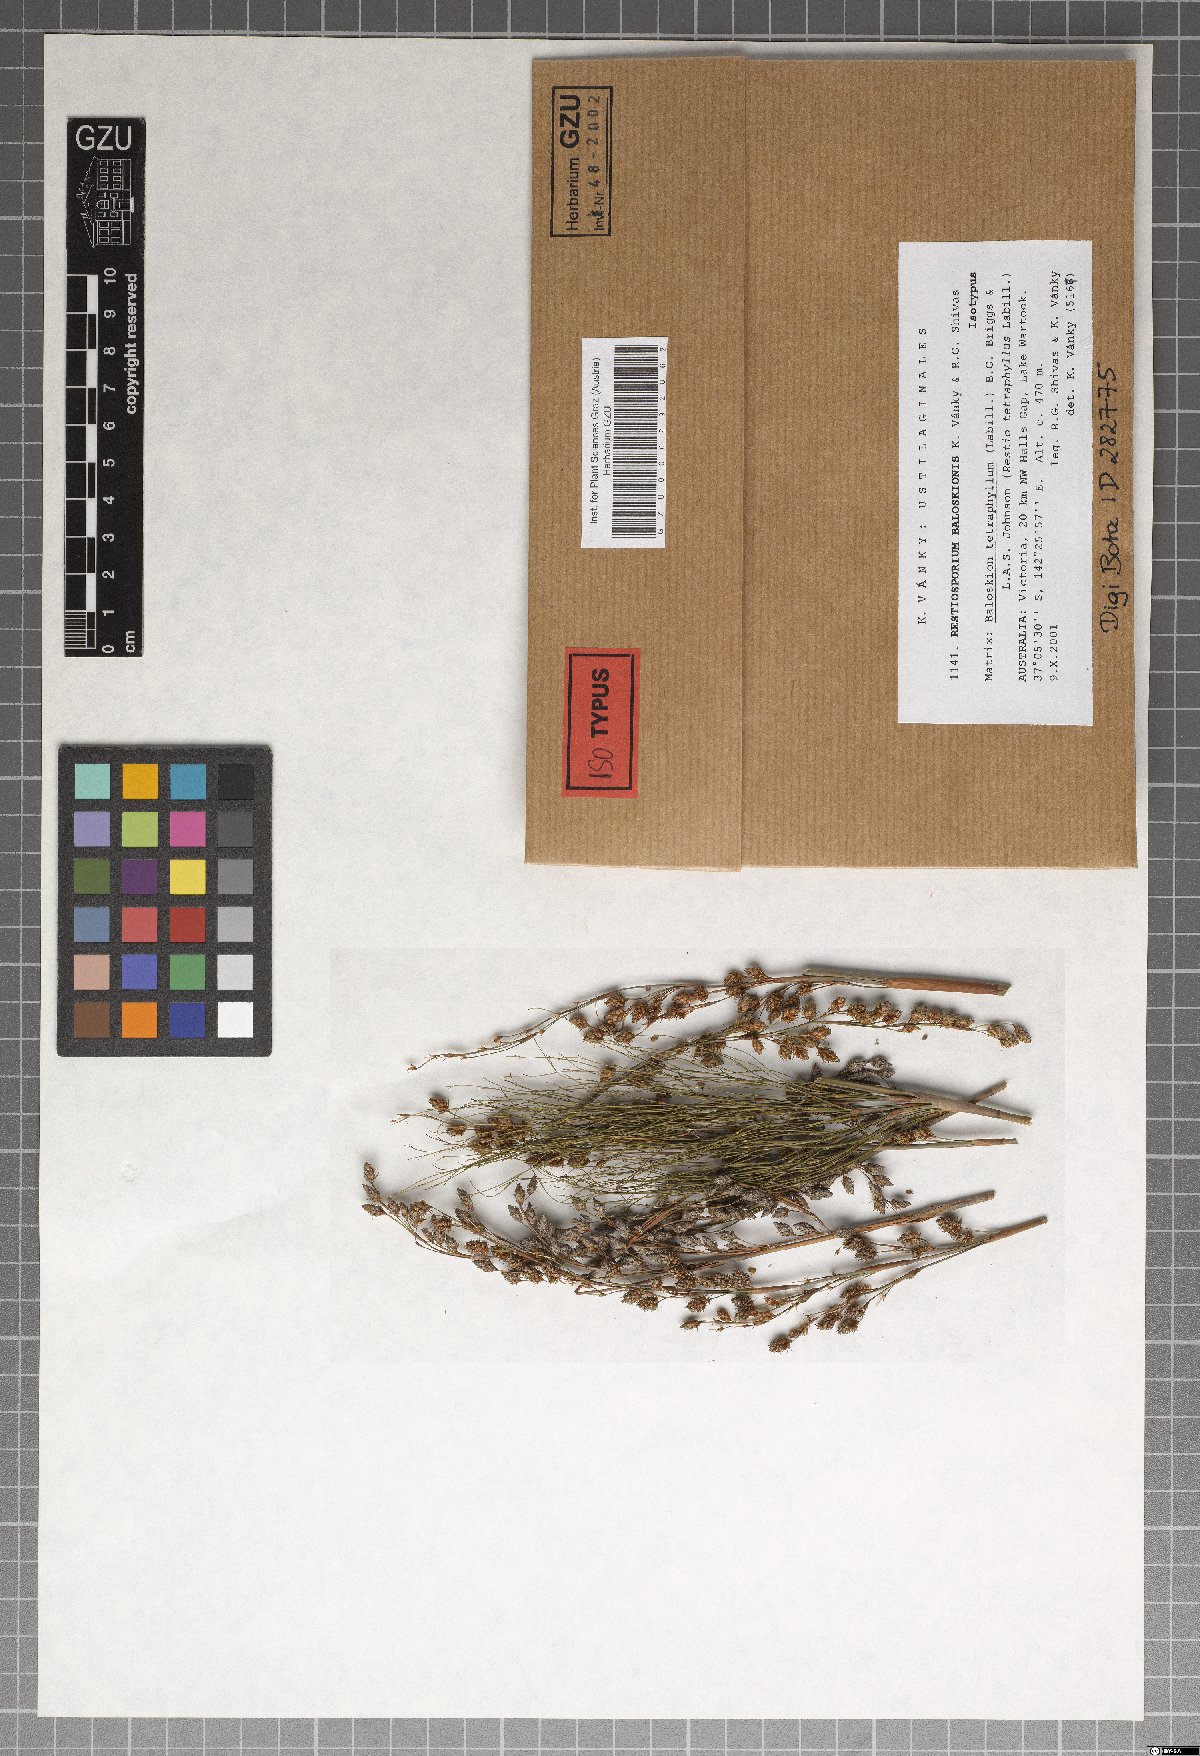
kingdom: Fungi
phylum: Basidiomycota
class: Ustilaginomycetes
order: Ustilaginales
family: Websdaneaceae
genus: Restiosporium
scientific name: Restiosporium baloskionis
